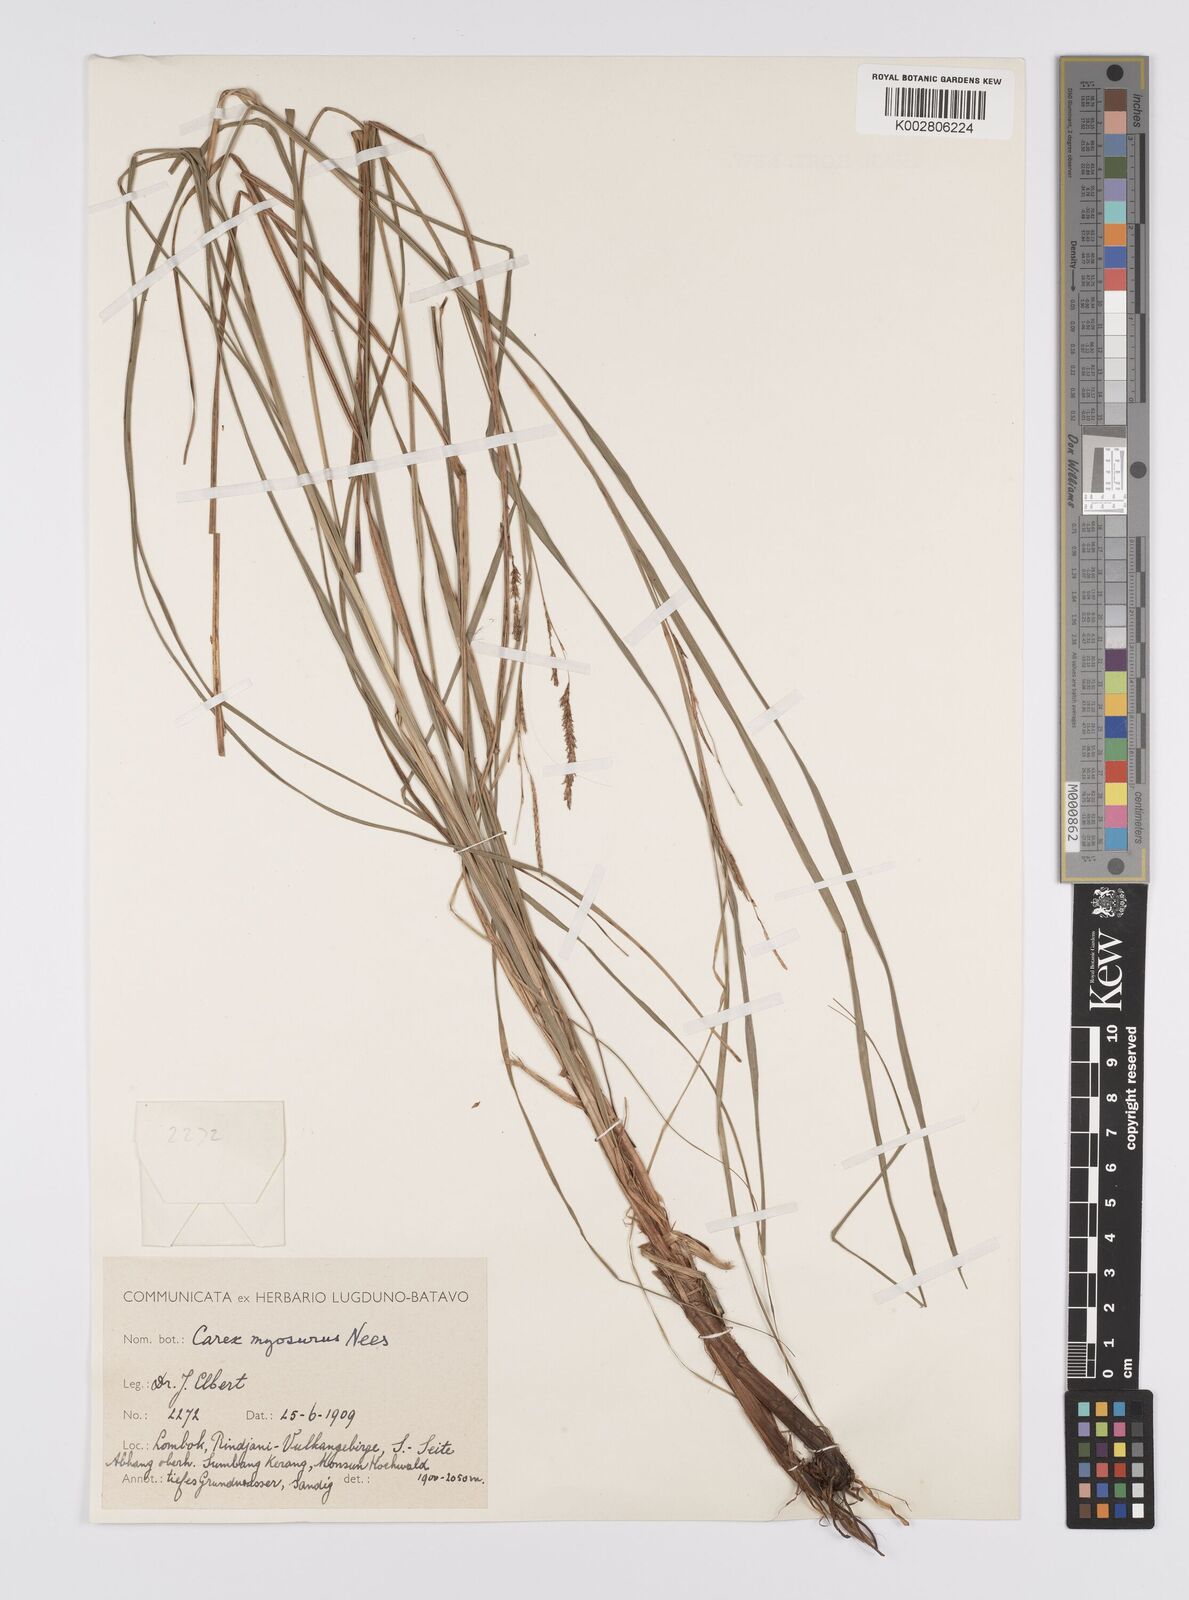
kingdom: Plantae
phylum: Tracheophyta
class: Liliopsida
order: Poales
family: Cyperaceae
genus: Carex
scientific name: Carex myosurus
